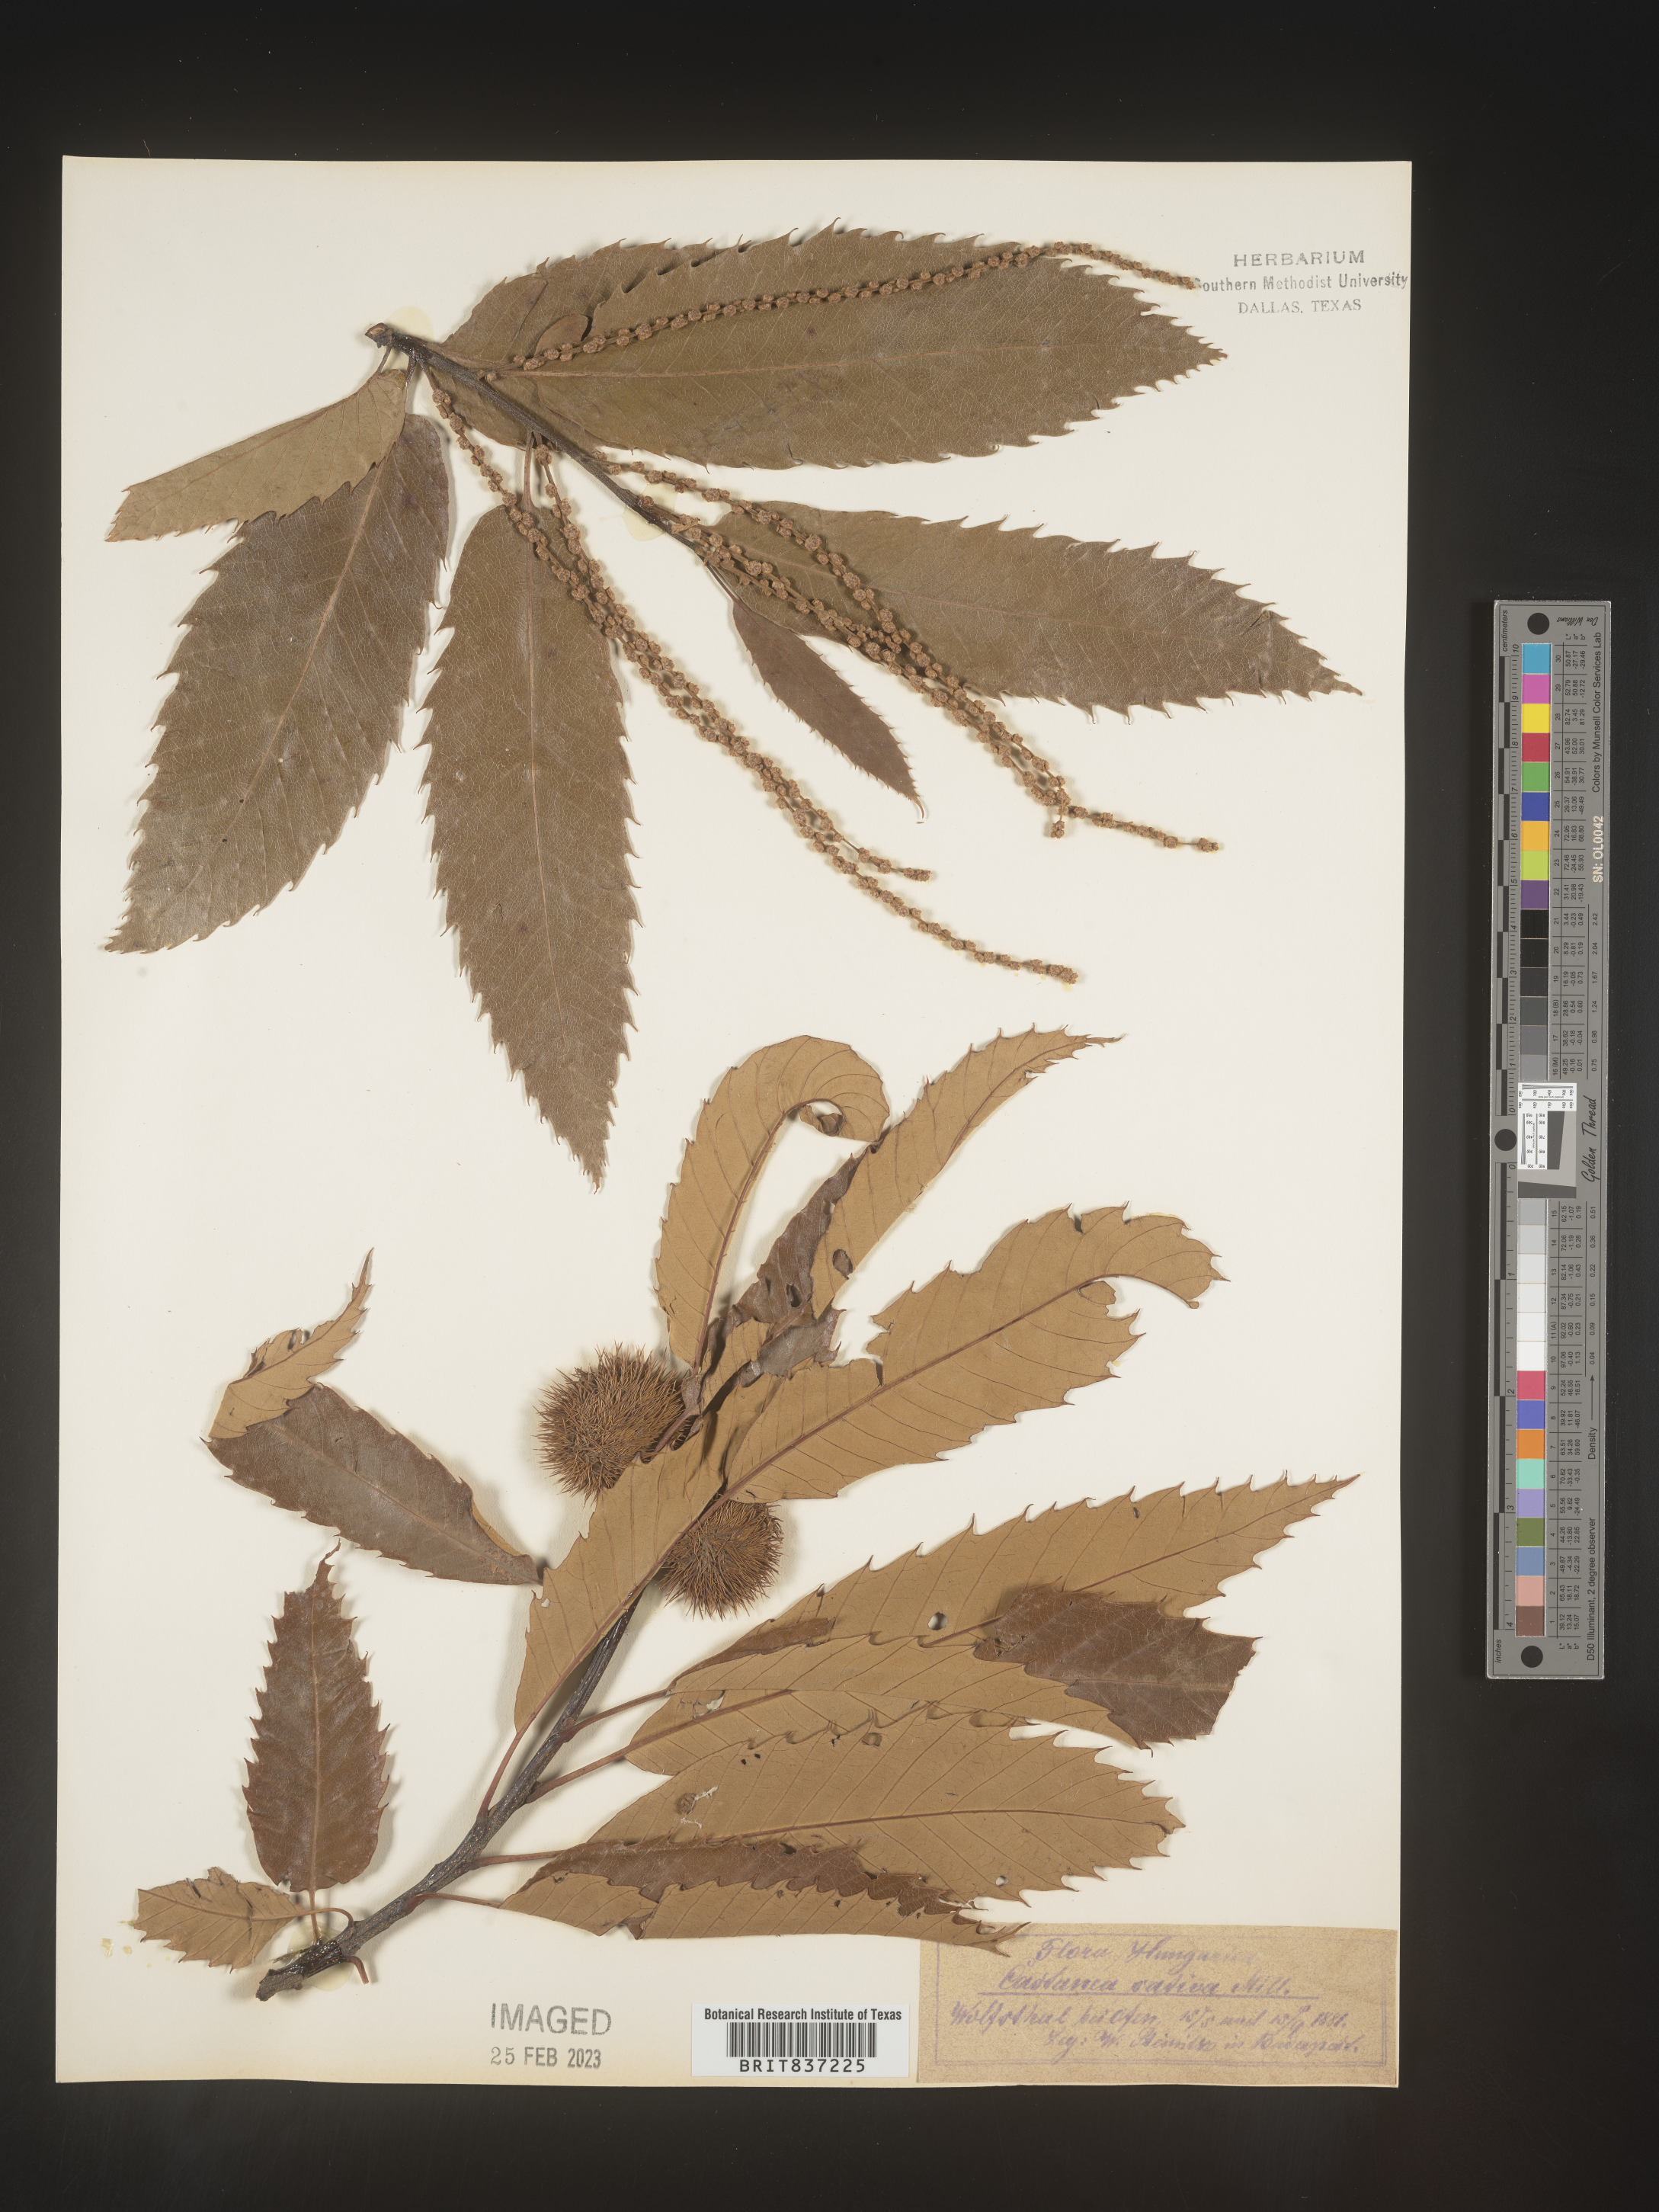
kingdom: Plantae
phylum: Tracheophyta
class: Magnoliopsida
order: Fagales
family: Fagaceae
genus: Castanea
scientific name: Castanea
